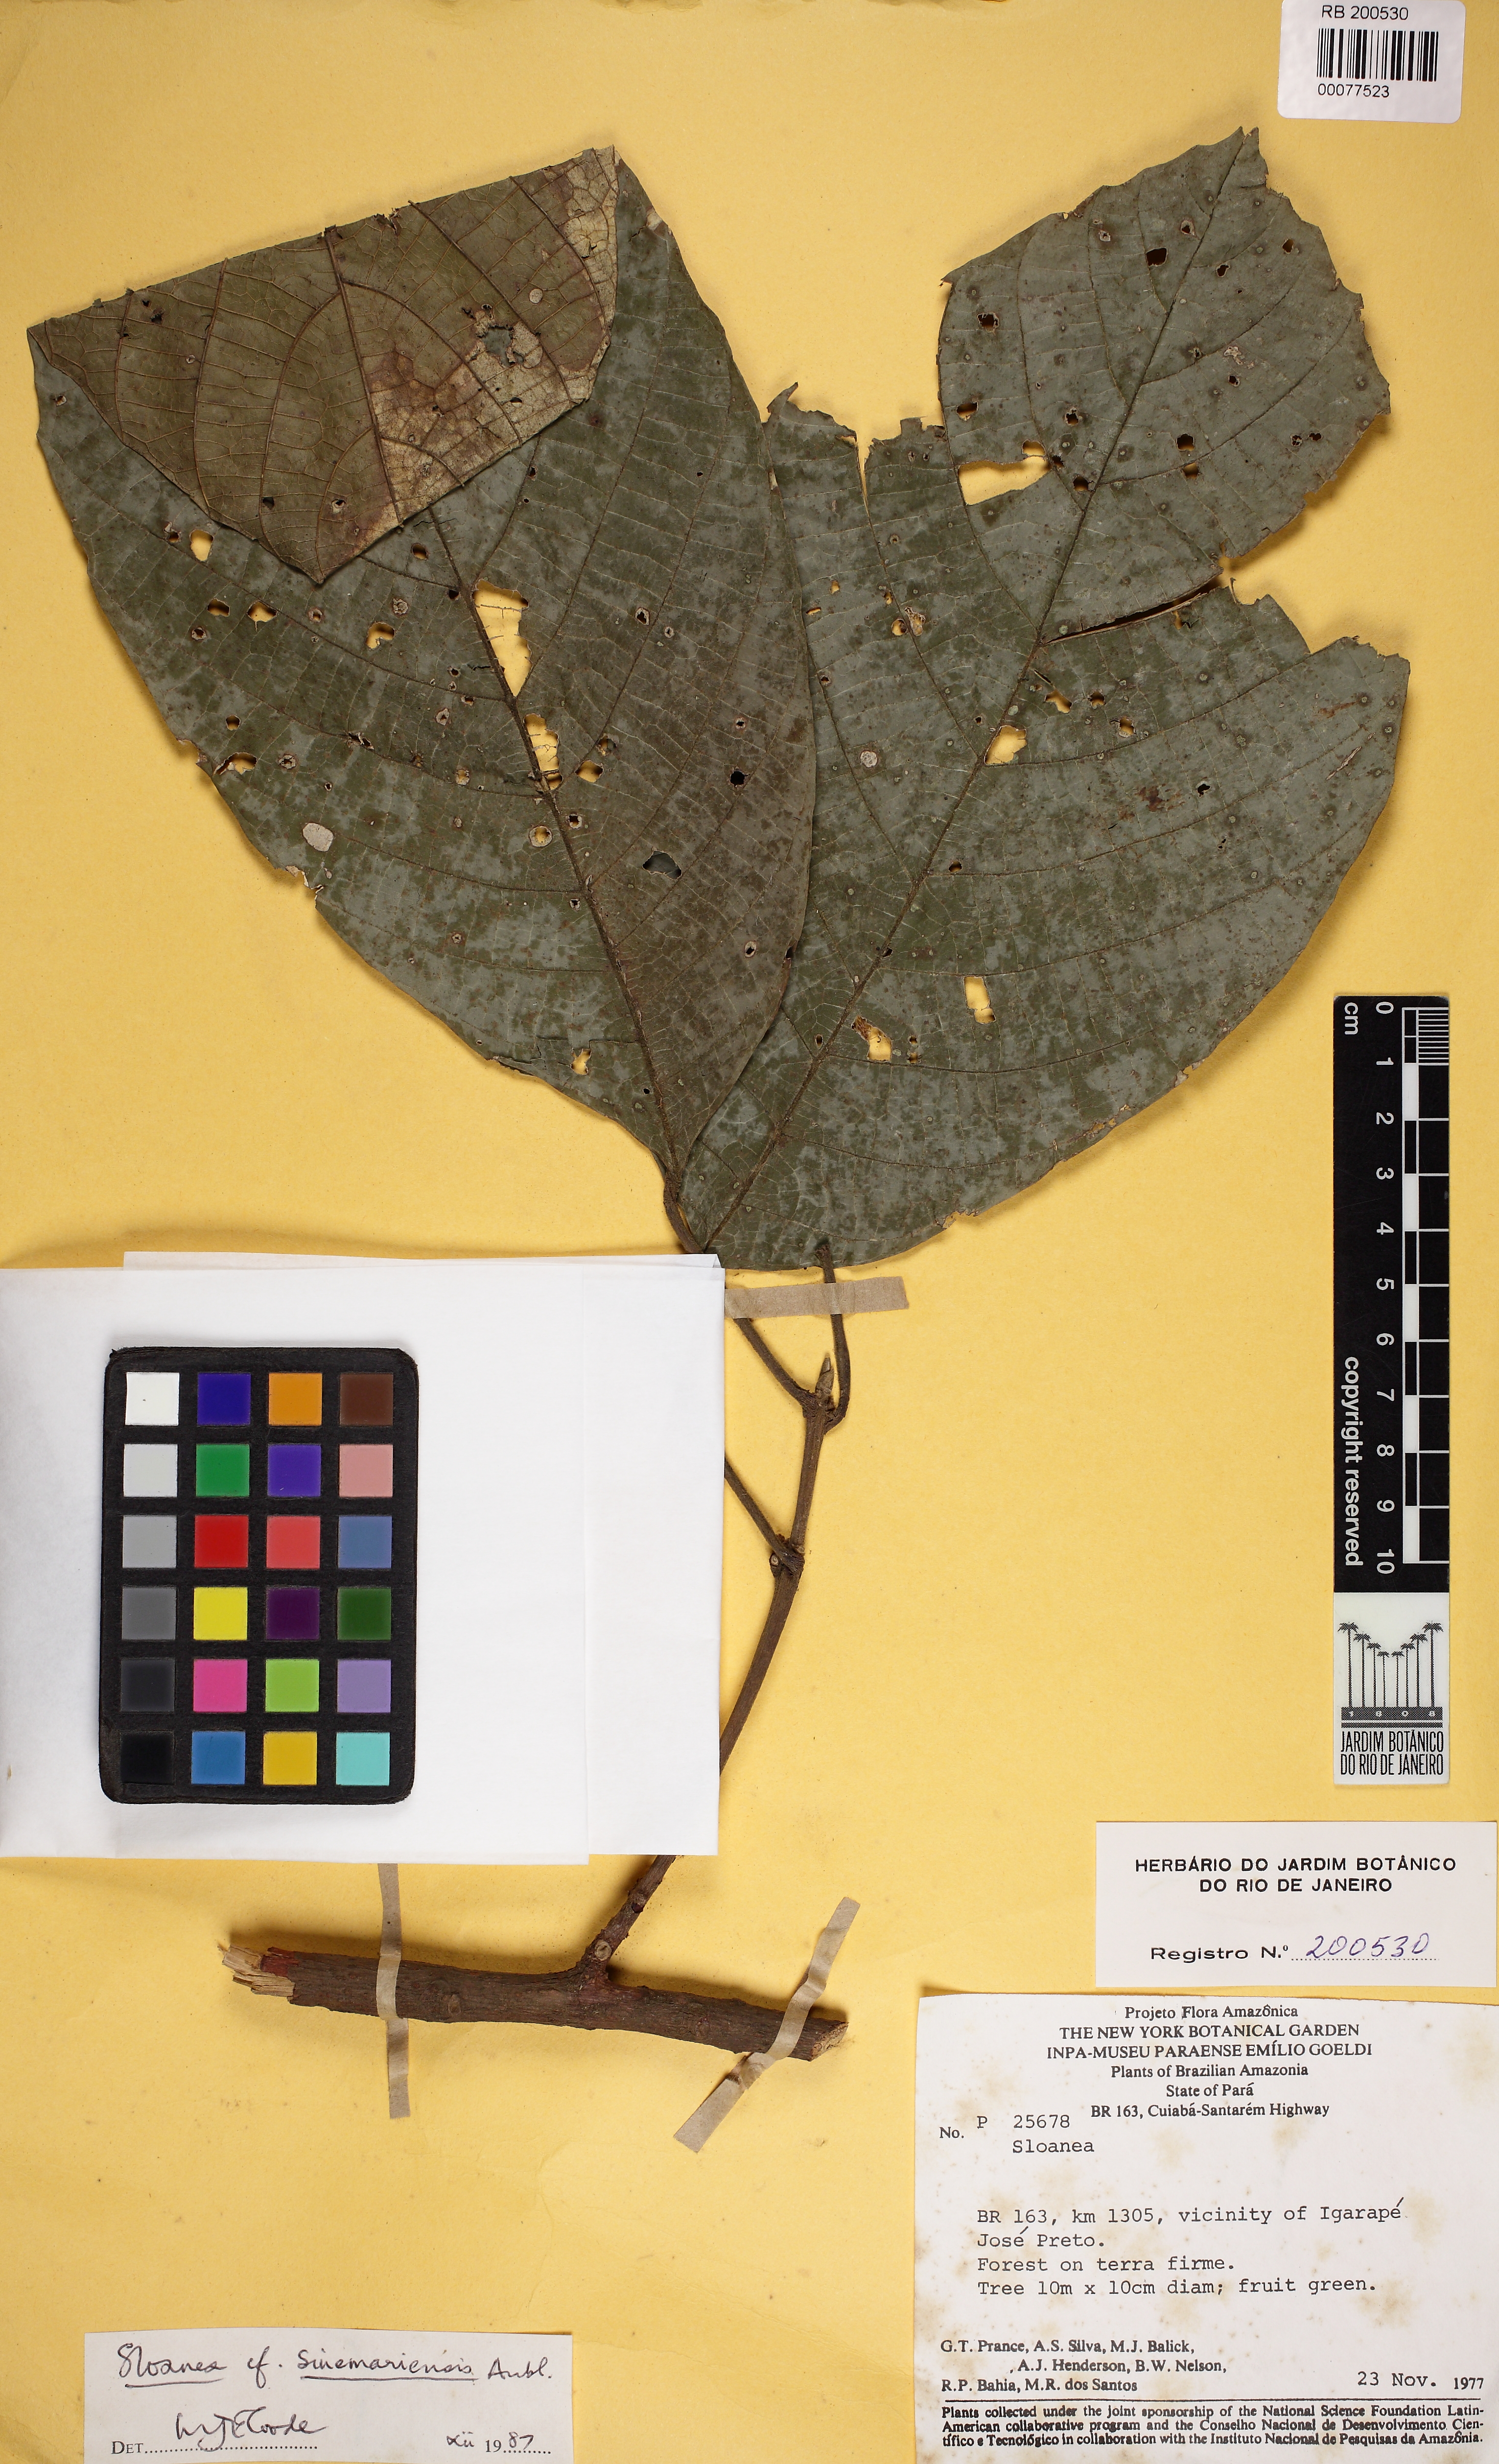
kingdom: Plantae
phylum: Tracheophyta
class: Magnoliopsida
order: Oxalidales
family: Elaeocarpaceae
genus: Sloanea
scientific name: Sloanea sinemariensis
